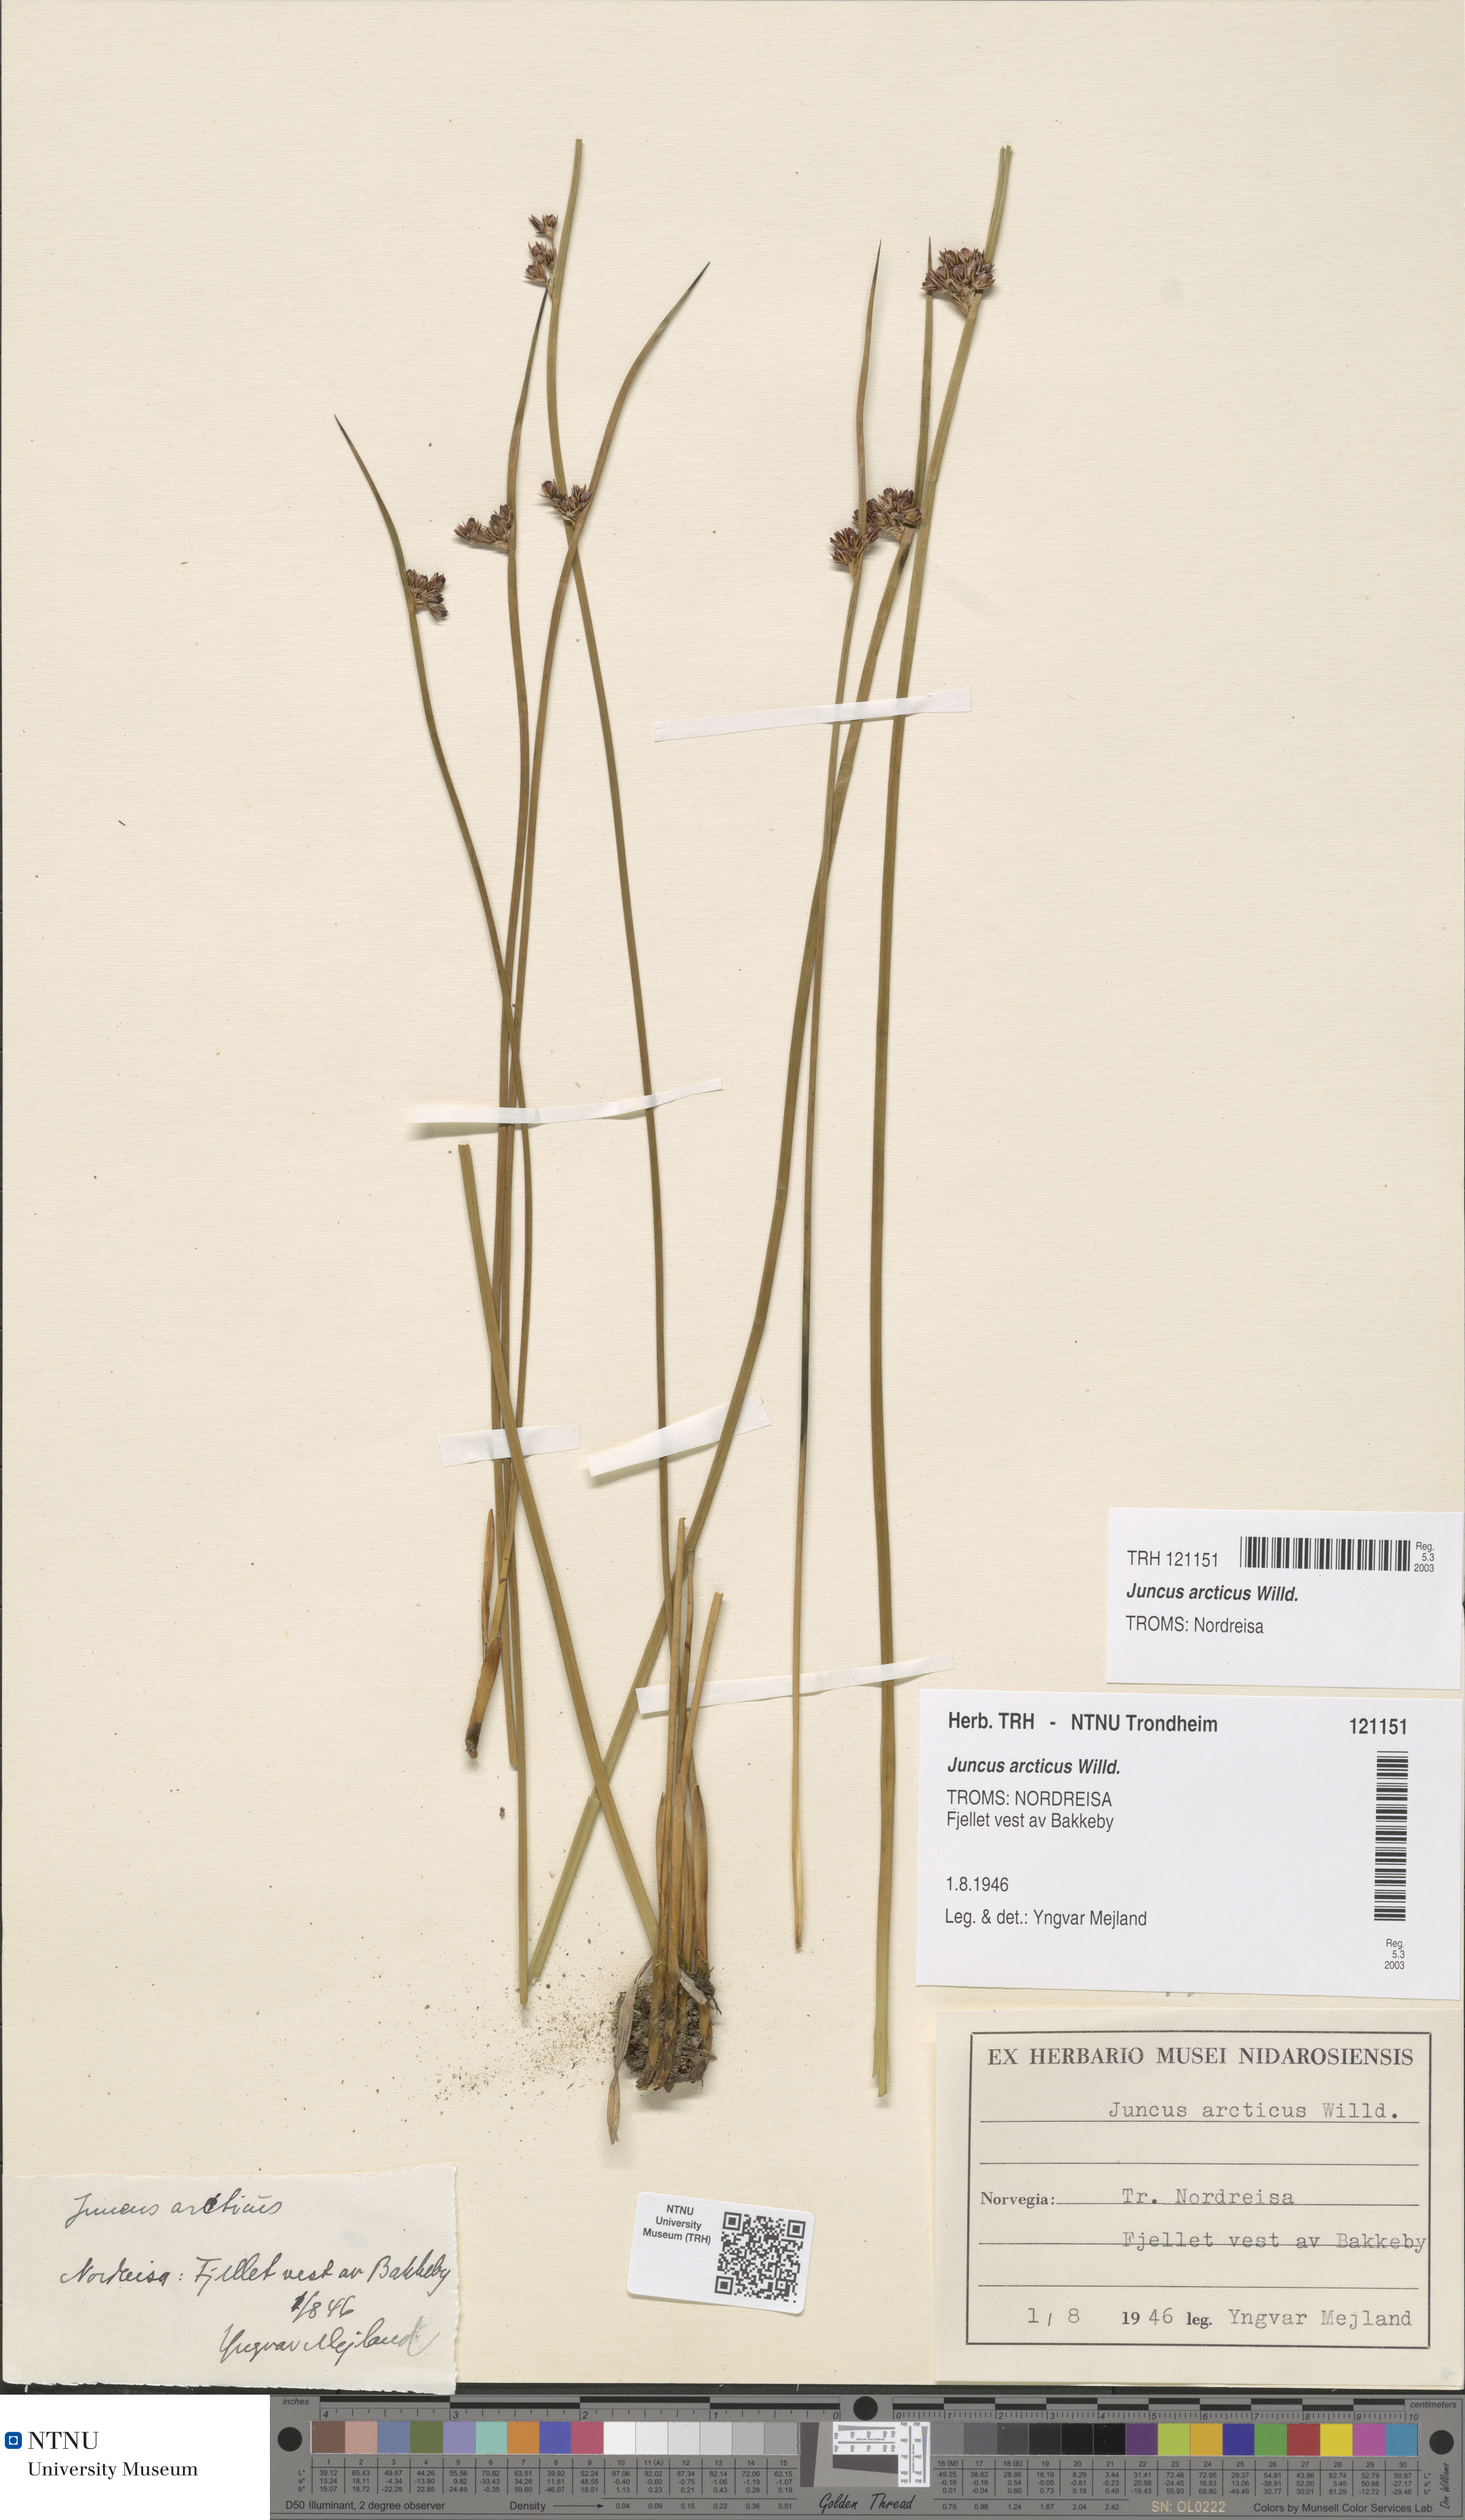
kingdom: Plantae
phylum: Tracheophyta
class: Liliopsida
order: Poales
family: Juncaceae
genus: Juncus
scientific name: Juncus arcticus
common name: Arctic rush
